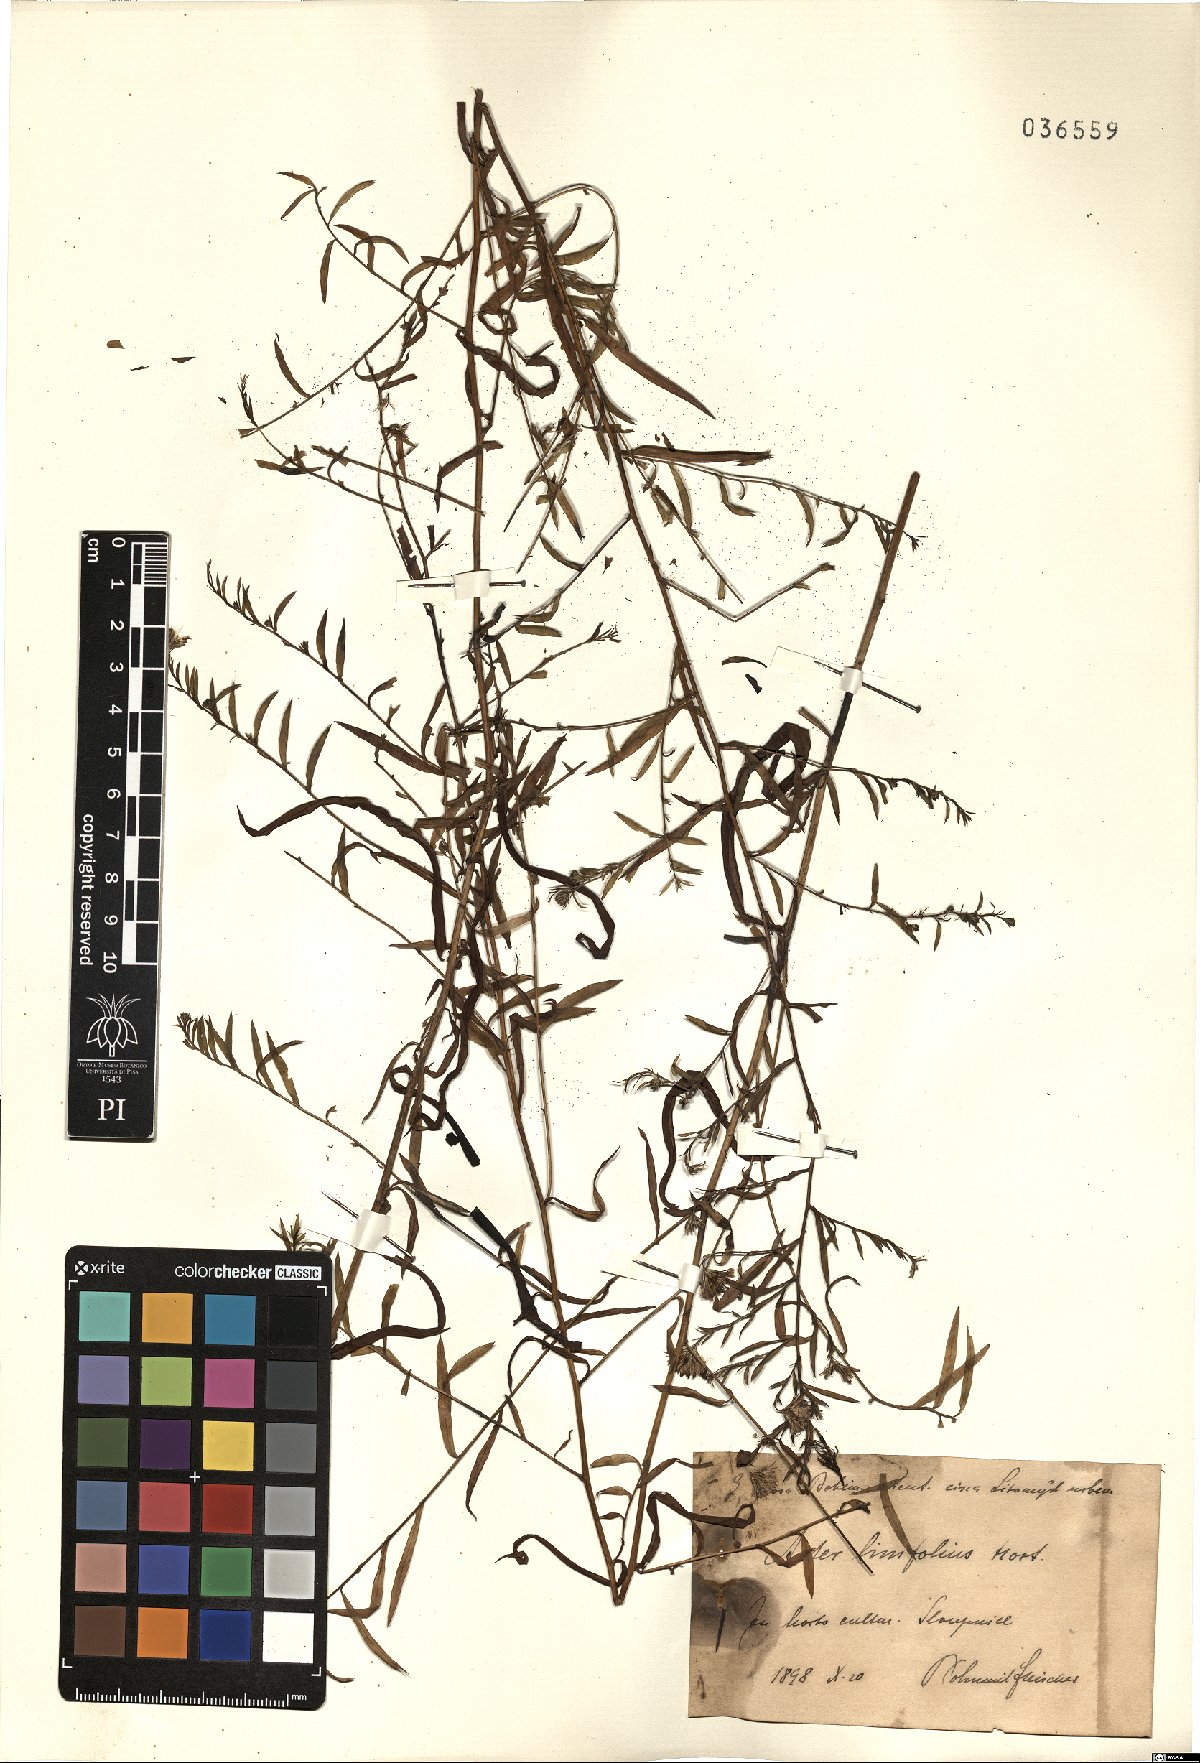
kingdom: Plantae
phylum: Tracheophyta
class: Magnoliopsida
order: Asterales
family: Asteraceae
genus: Felicia
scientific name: Felicia linifolia
